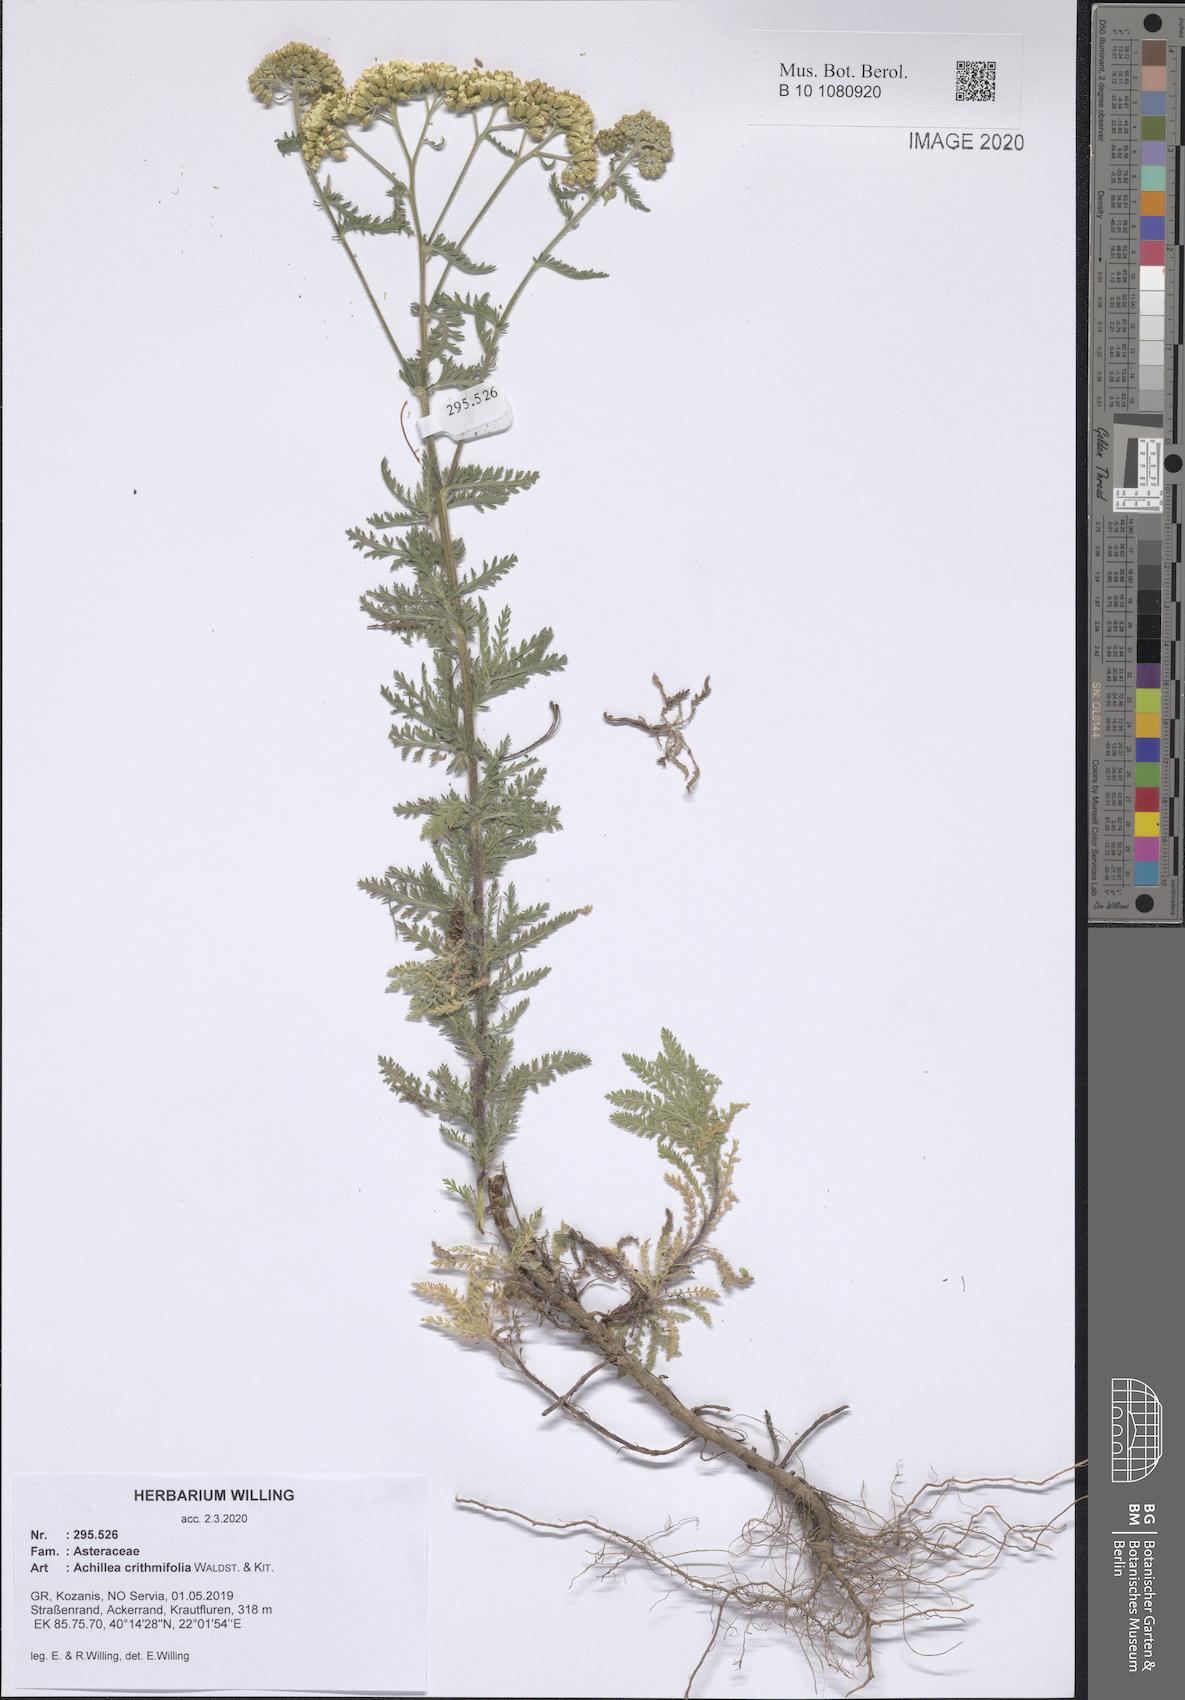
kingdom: Plantae
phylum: Tracheophyta
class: Magnoliopsida
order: Asterales
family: Asteraceae
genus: Achillea
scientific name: Achillea crithmifolia
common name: Yarrow
